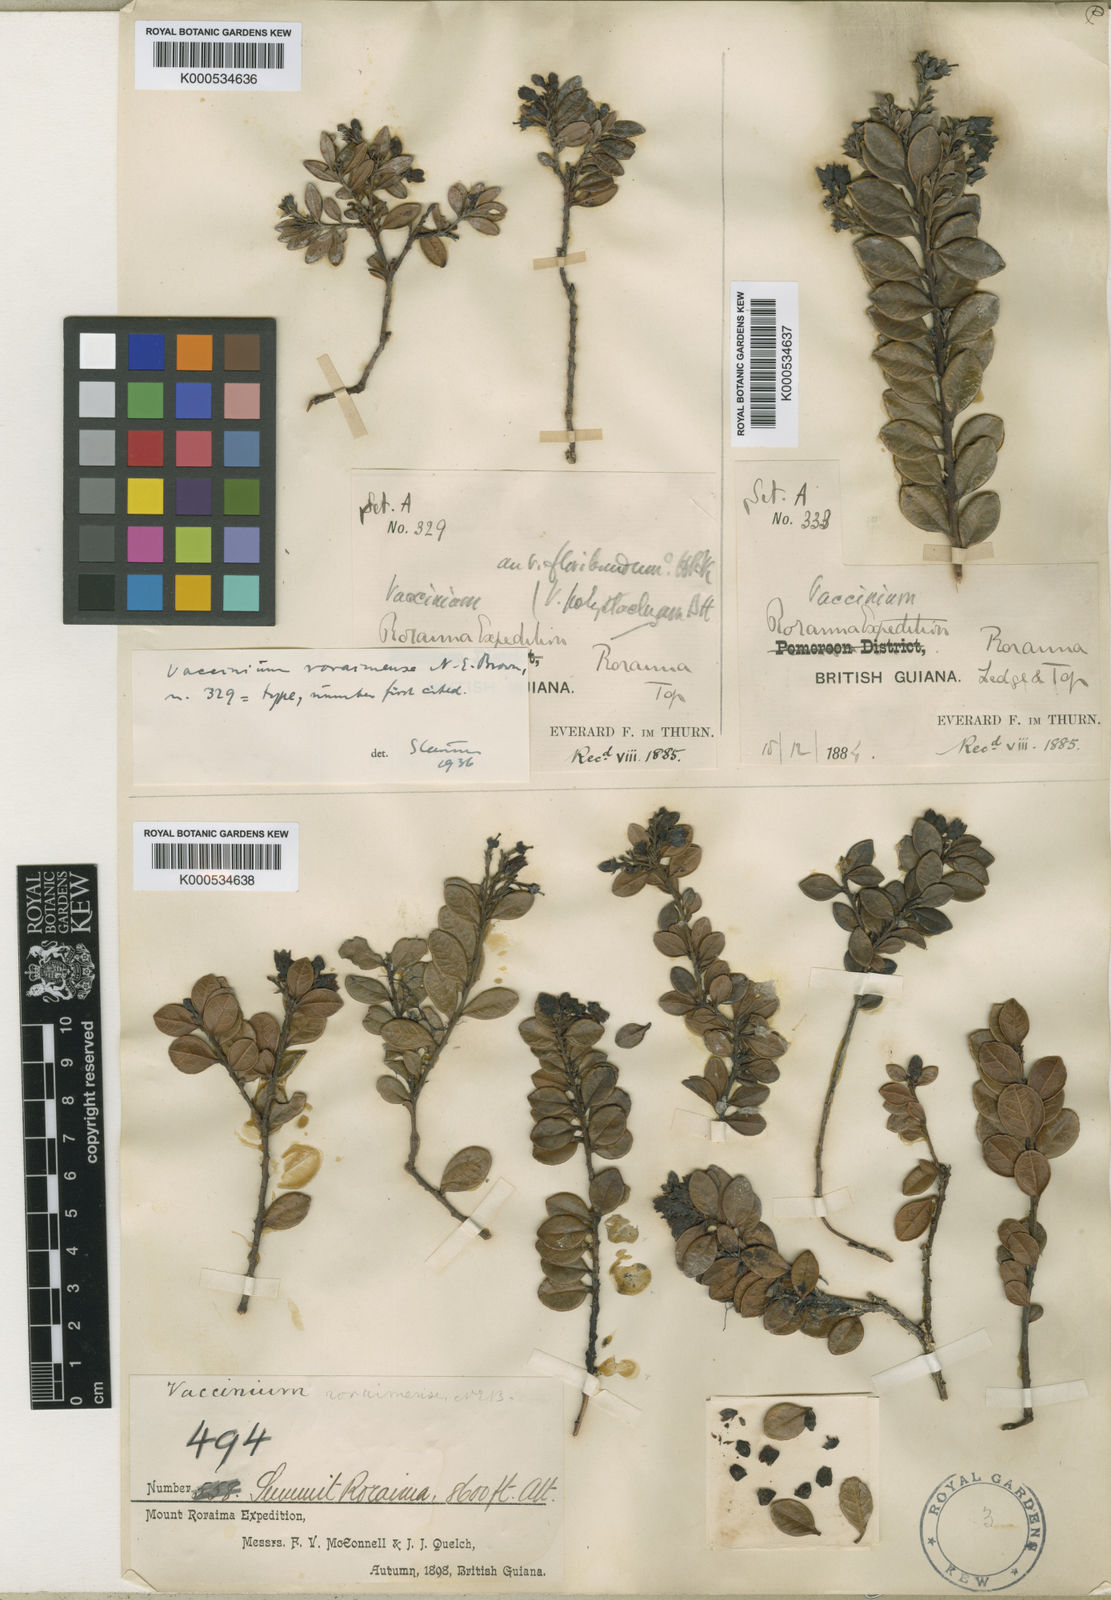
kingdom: Plantae
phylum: Tracheophyta
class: Magnoliopsida
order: Ericales
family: Ericaceae
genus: Vaccinium
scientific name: Vaccinium roraimense
